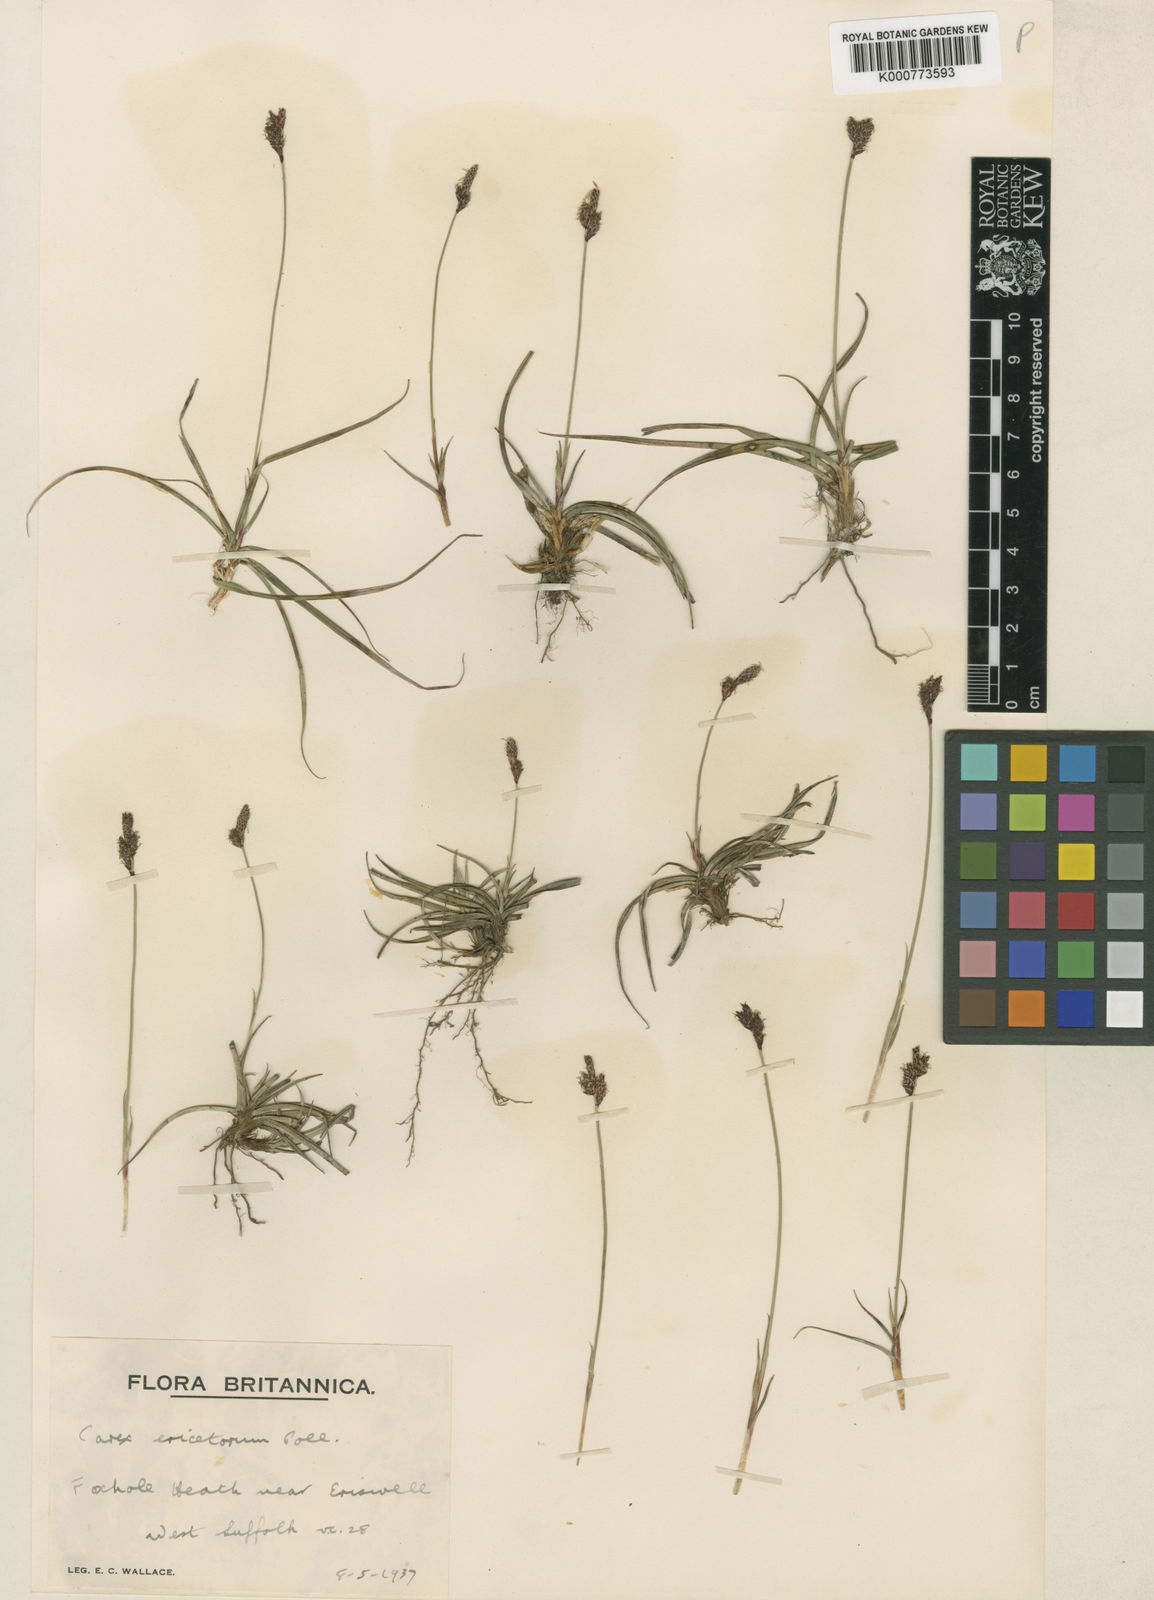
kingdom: Plantae
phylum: Tracheophyta
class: Liliopsida
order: Poales
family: Cyperaceae
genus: Carex
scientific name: Carex ericetorum
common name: Rare spring-sedge
